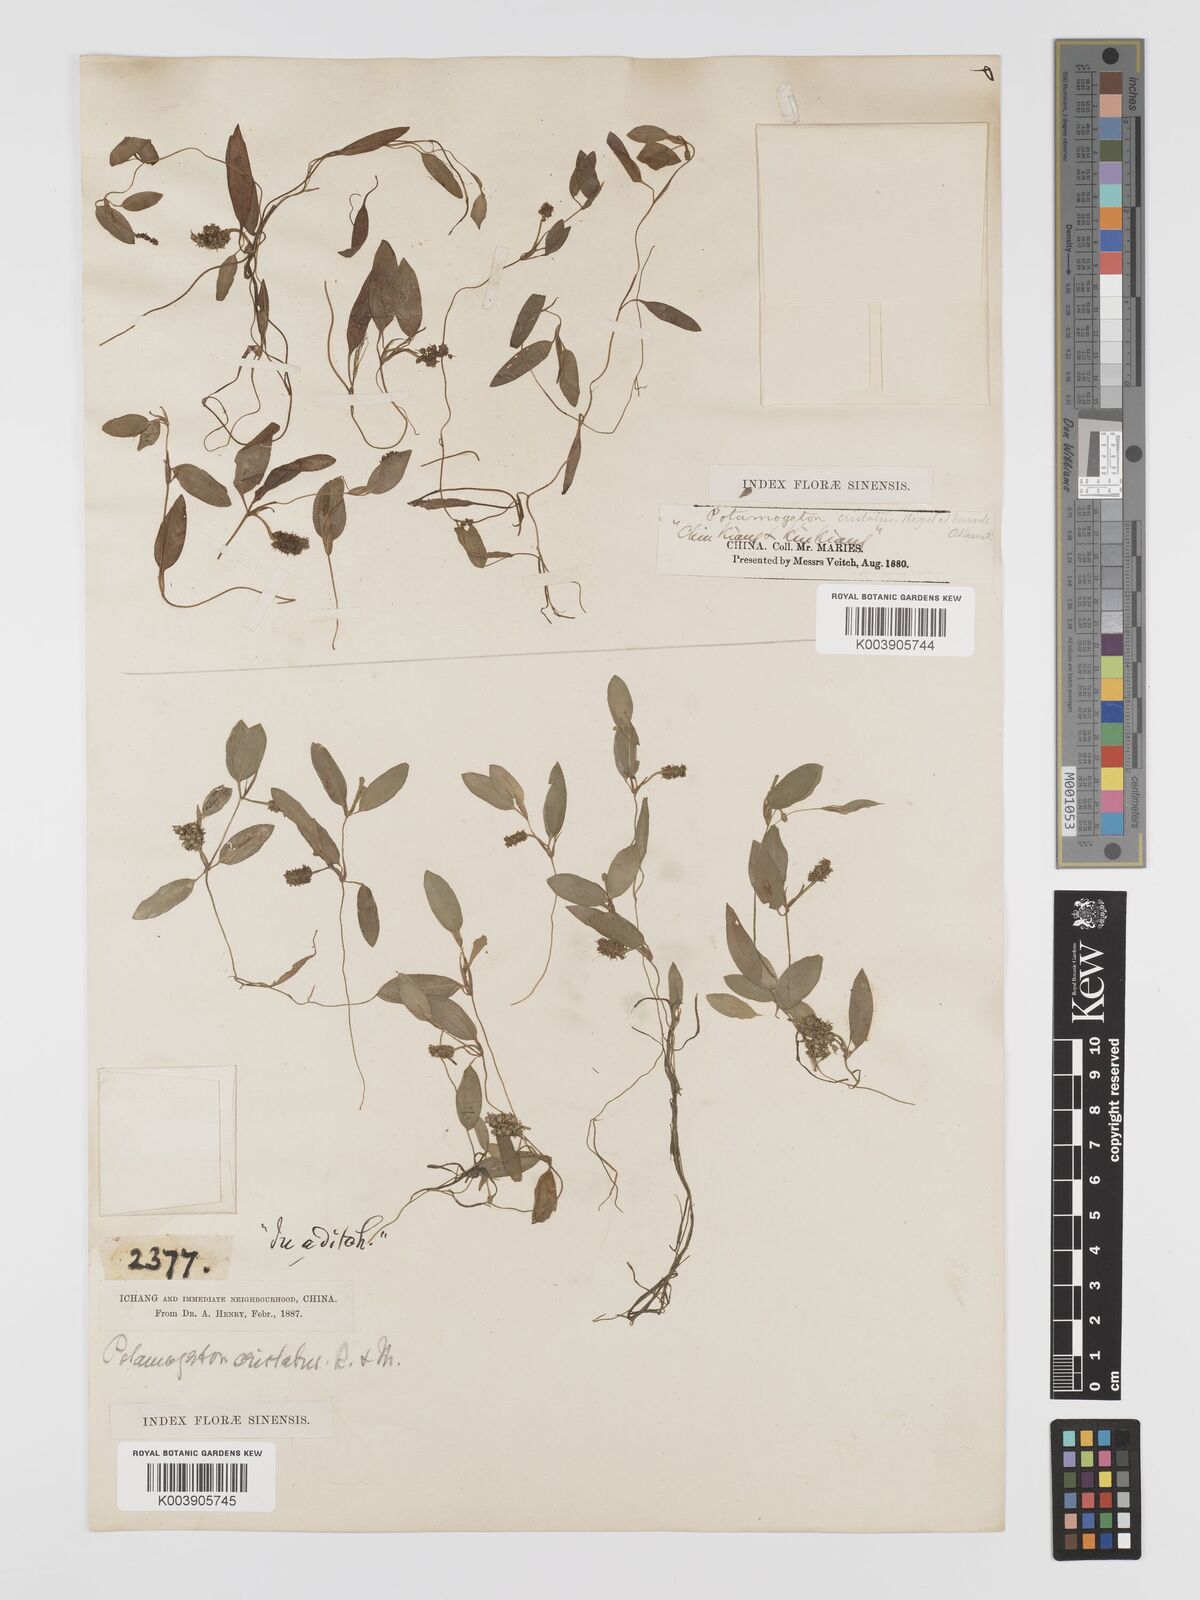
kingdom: Plantae
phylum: Tracheophyta
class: Liliopsida
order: Alismatales
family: Potamogetonaceae
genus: Potamogeton
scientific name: Potamogeton cristatus
